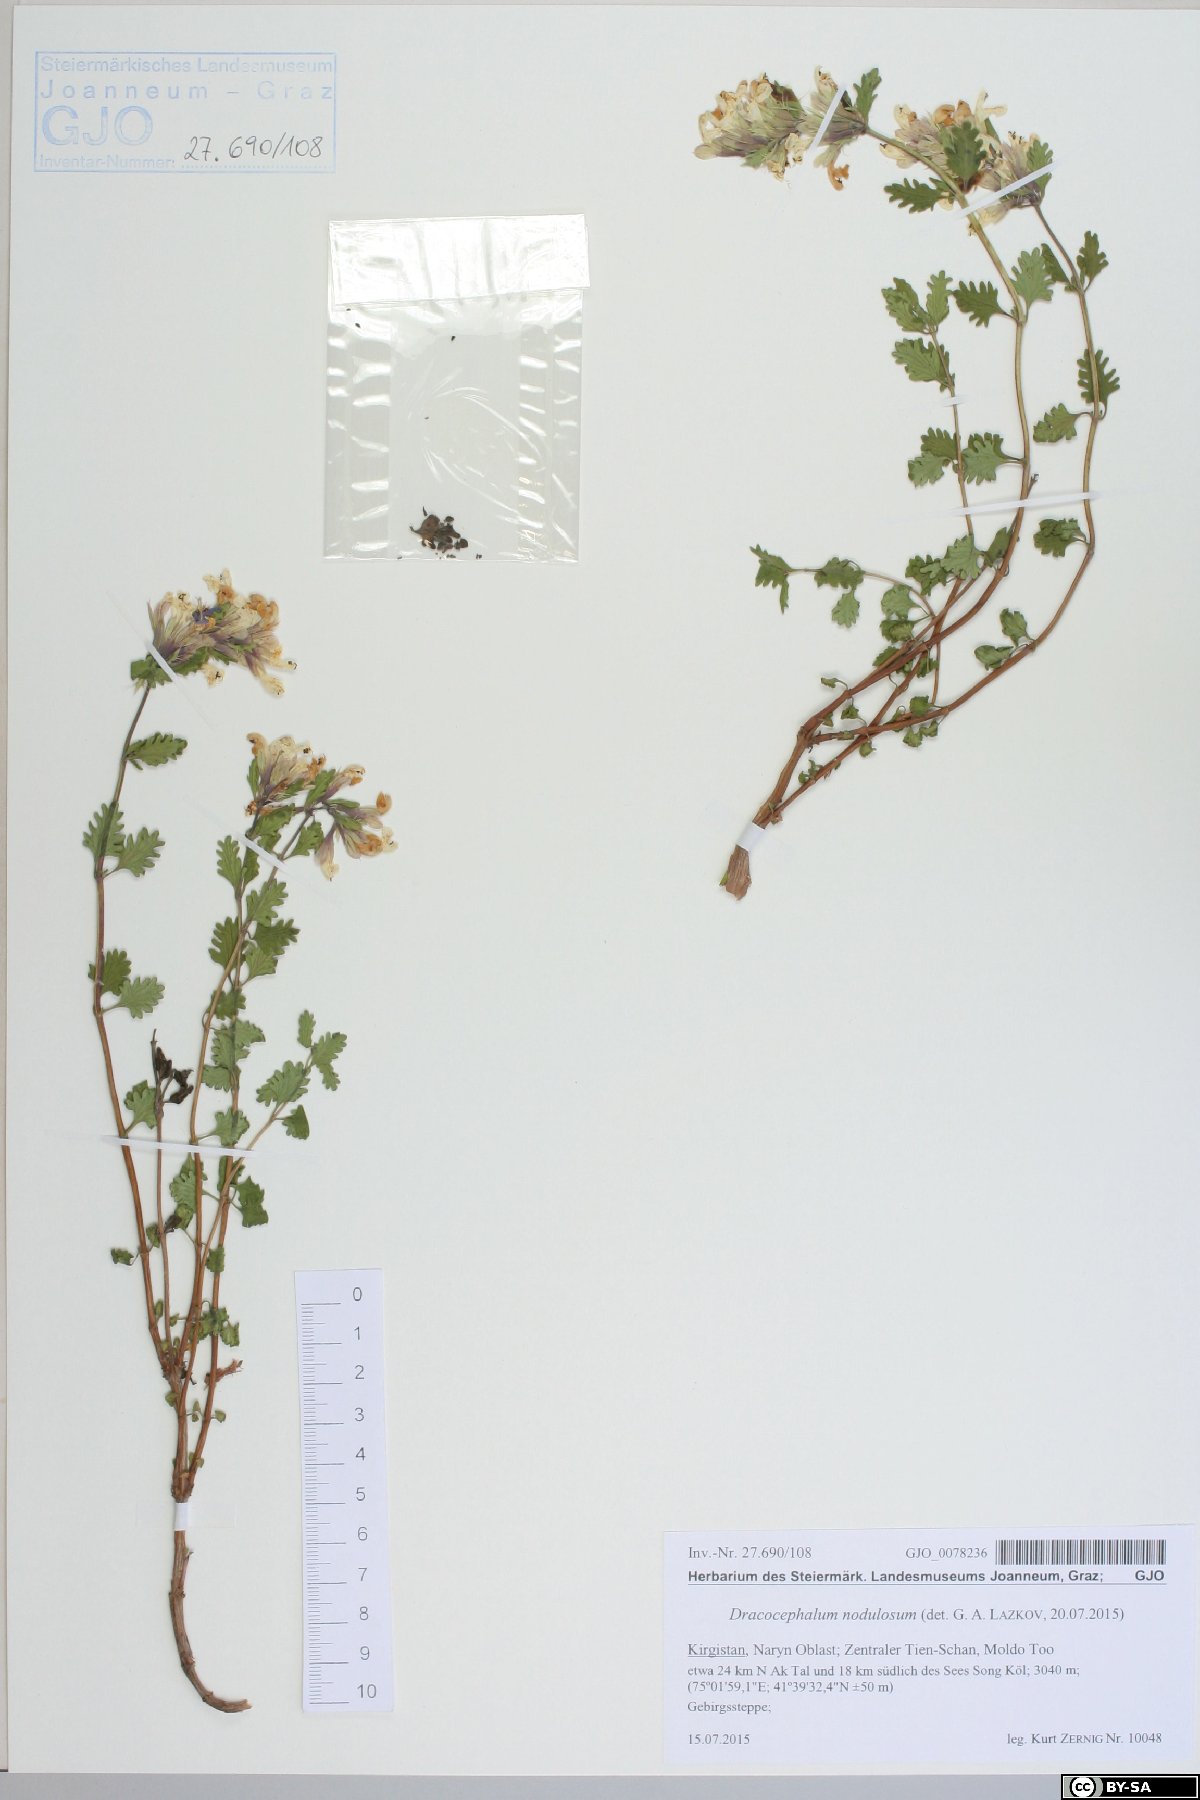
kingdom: Plantae
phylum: Tracheophyta
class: Magnoliopsida
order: Lamiales
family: Lamiaceae
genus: Dracocephalum
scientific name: Dracocephalum nodulosum
